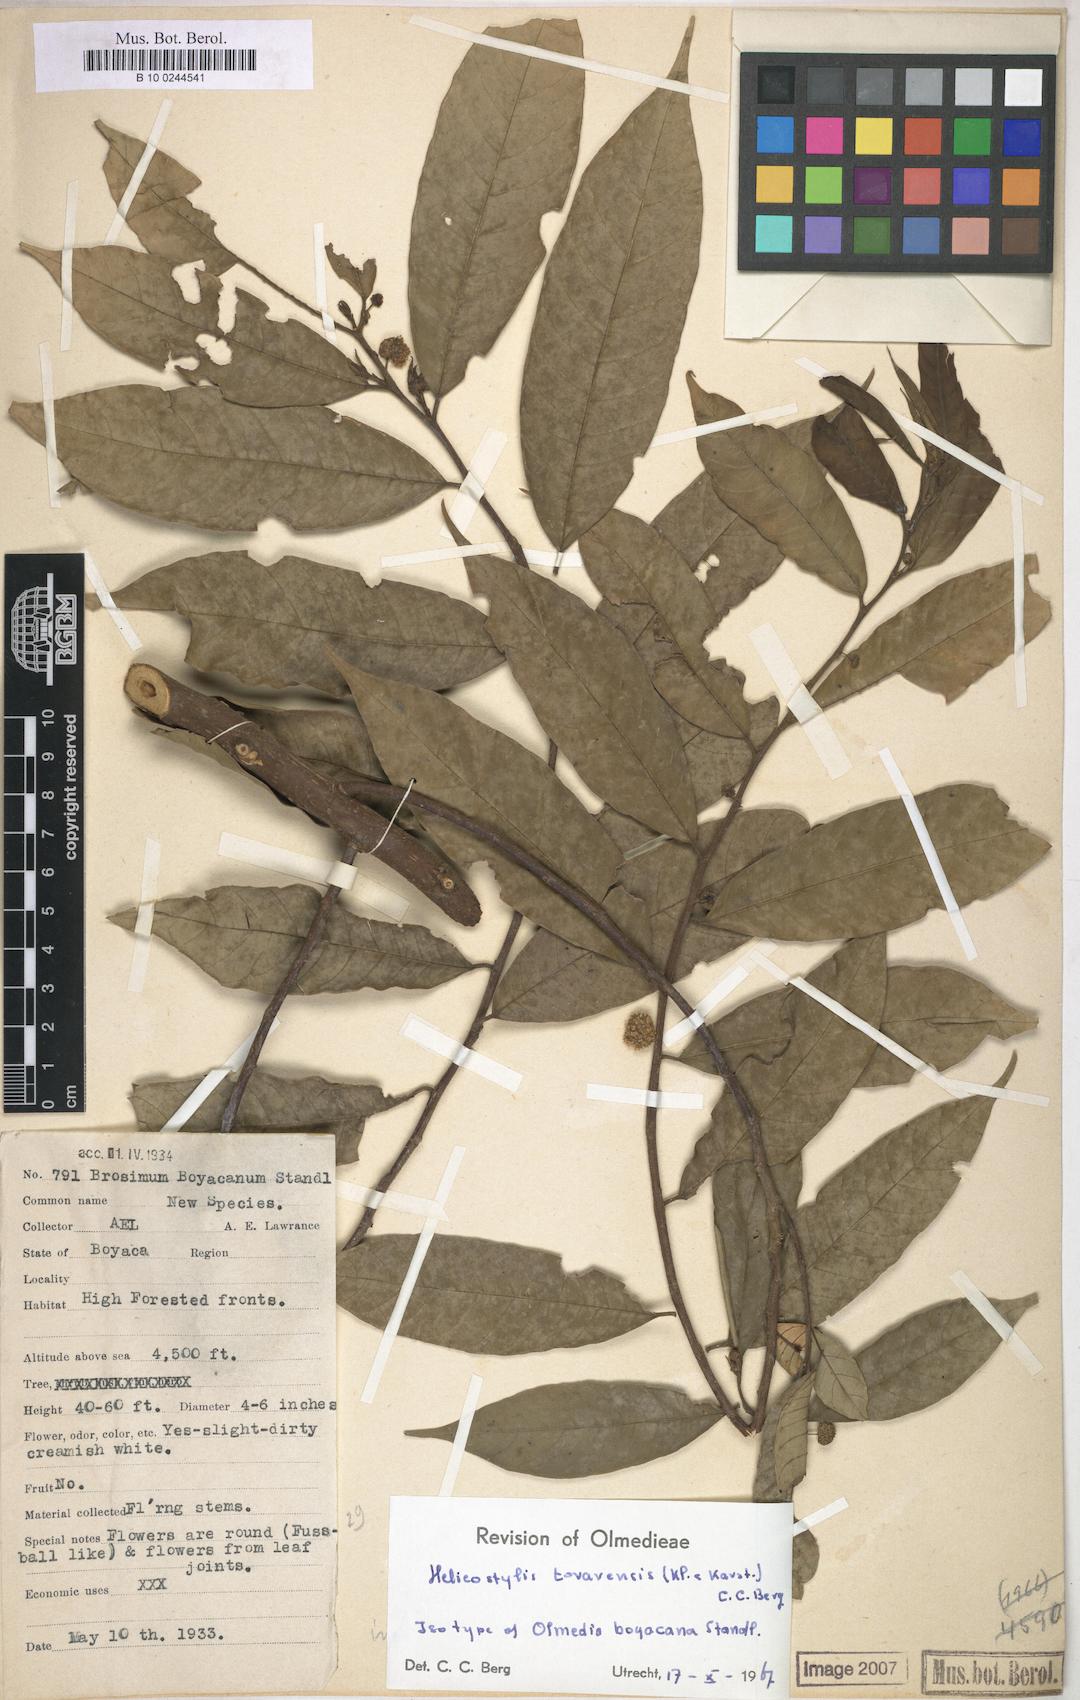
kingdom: Plantae
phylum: Tracheophyta
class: Magnoliopsida
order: Rosales
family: Moraceae
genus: Helicostylis
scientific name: Helicostylis tovarensis
